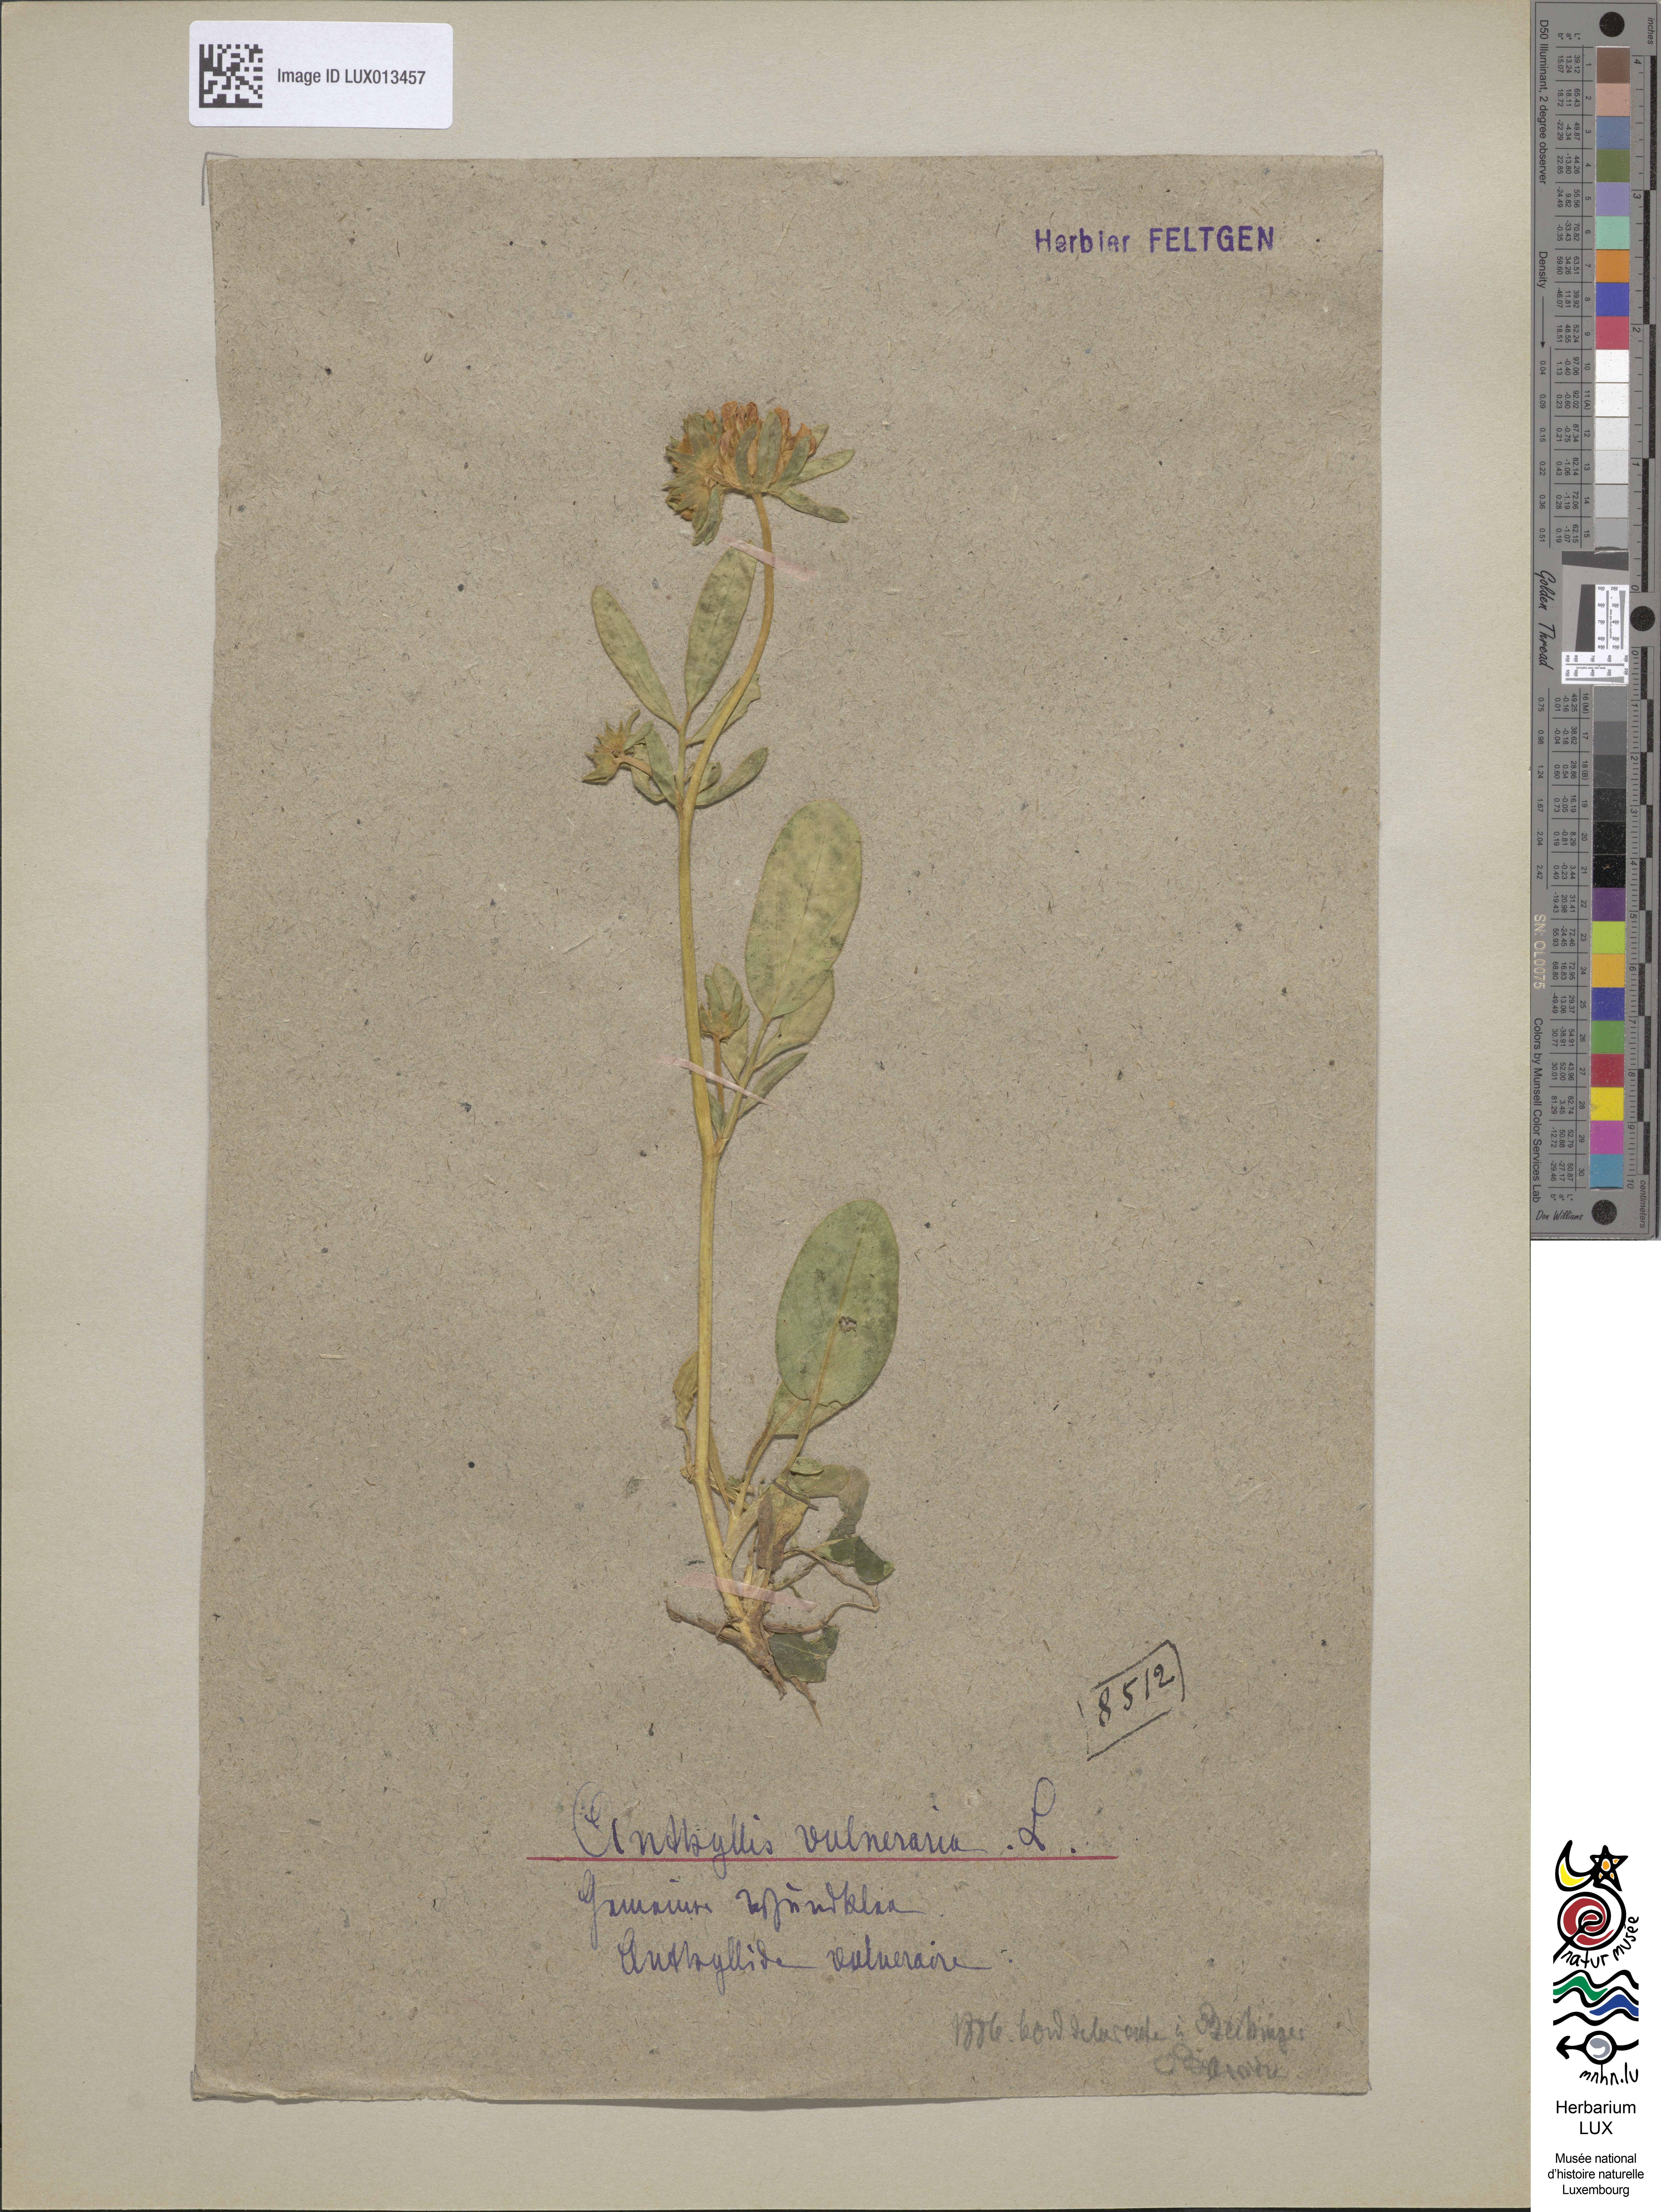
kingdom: Plantae
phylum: Tracheophyta
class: Magnoliopsida
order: Fabales
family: Fabaceae
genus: Anthyllis
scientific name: Anthyllis vulneraria
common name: Kidney vetch
